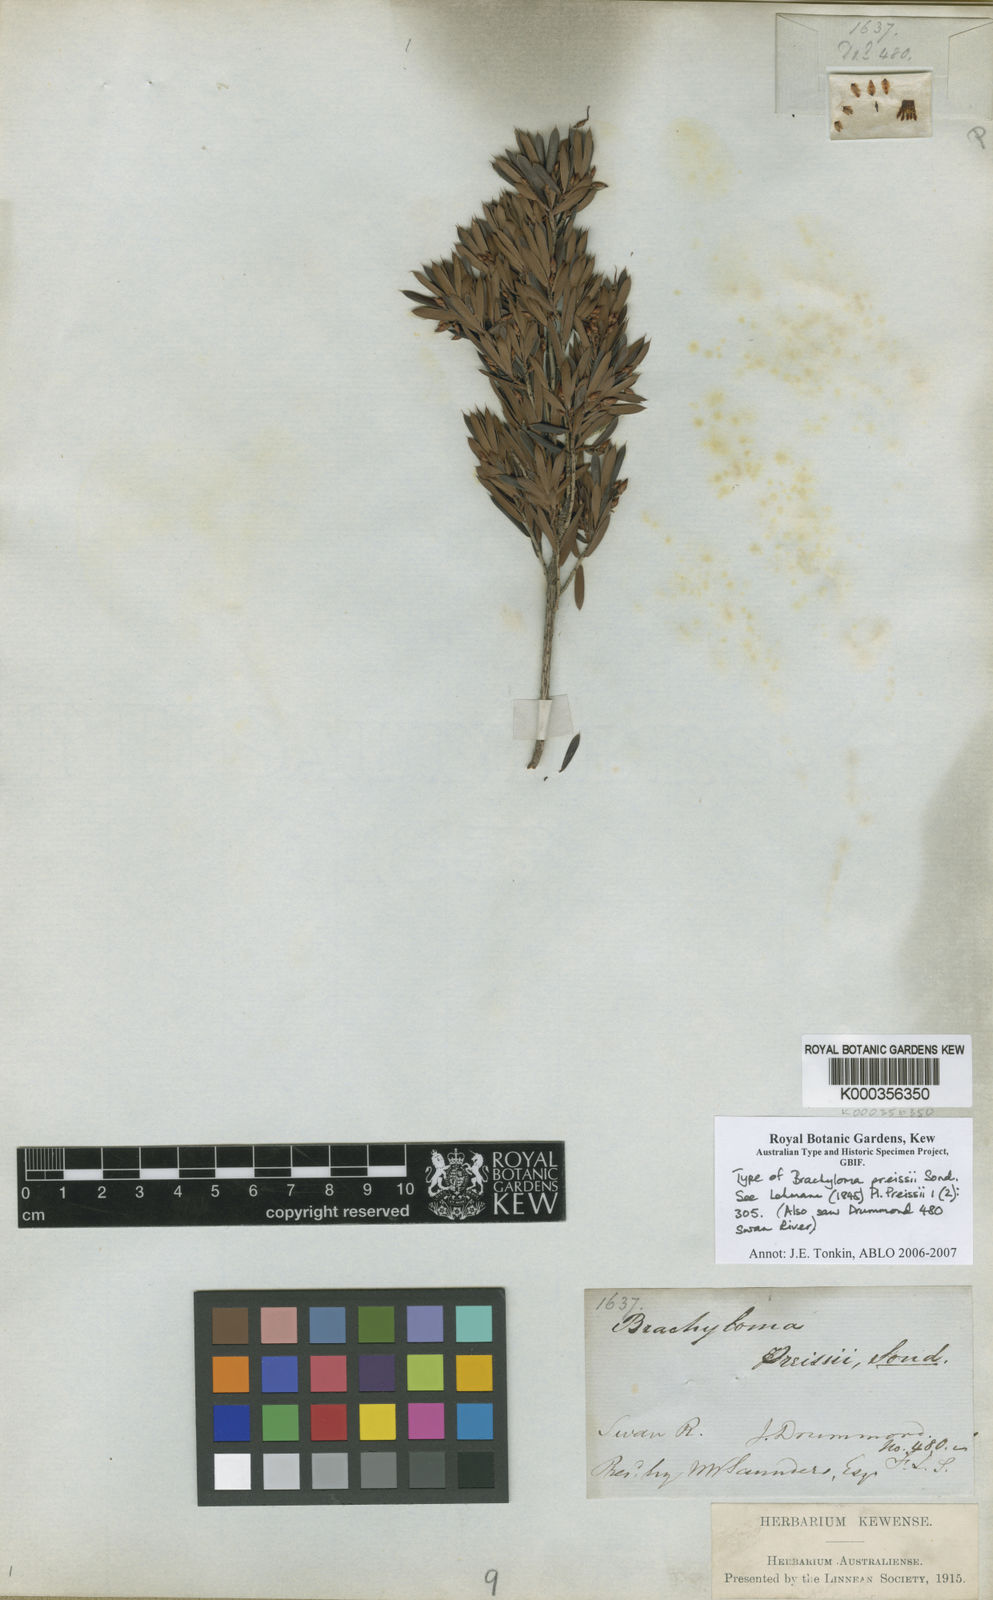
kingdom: Plantae
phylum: Tracheophyta
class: Magnoliopsida
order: Ericales
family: Ericaceae
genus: Brachyloma
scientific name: Brachyloma preissii
